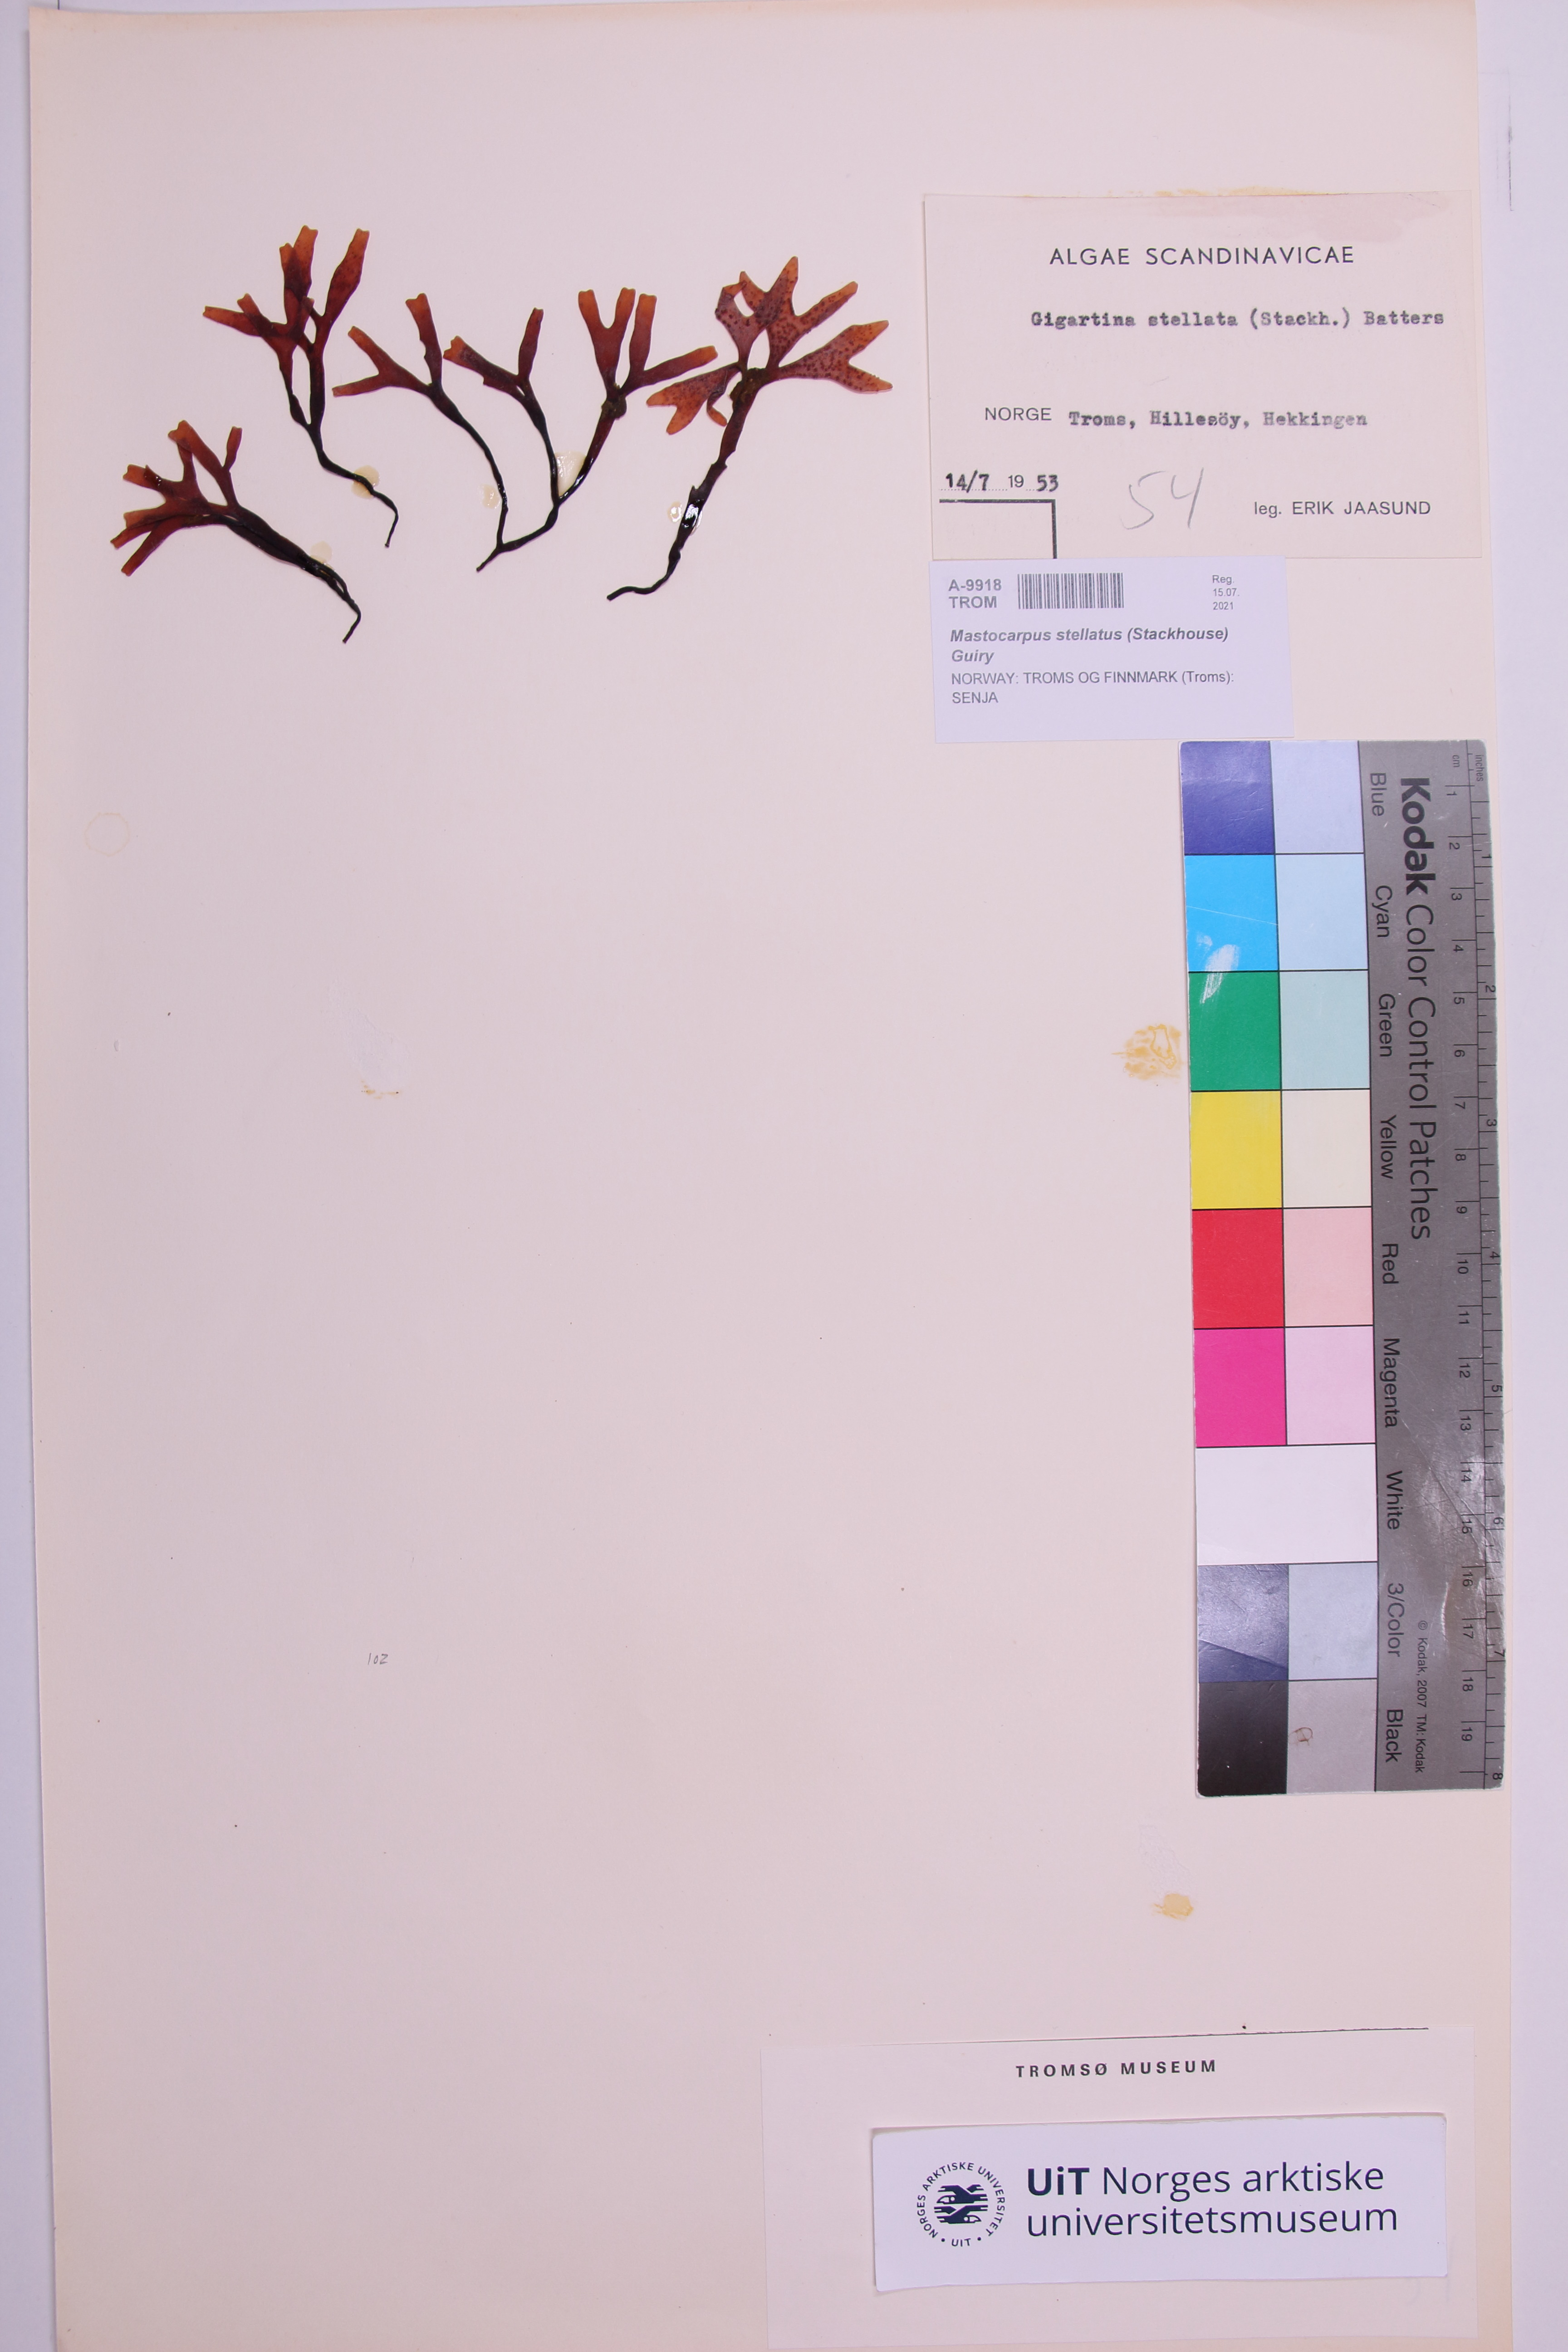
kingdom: Plantae
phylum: Rhodophyta
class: Florideophyceae
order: Gigartinales
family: Phyllophoraceae
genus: Mastocarpus
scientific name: Mastocarpus stellatus
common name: False irish moss
